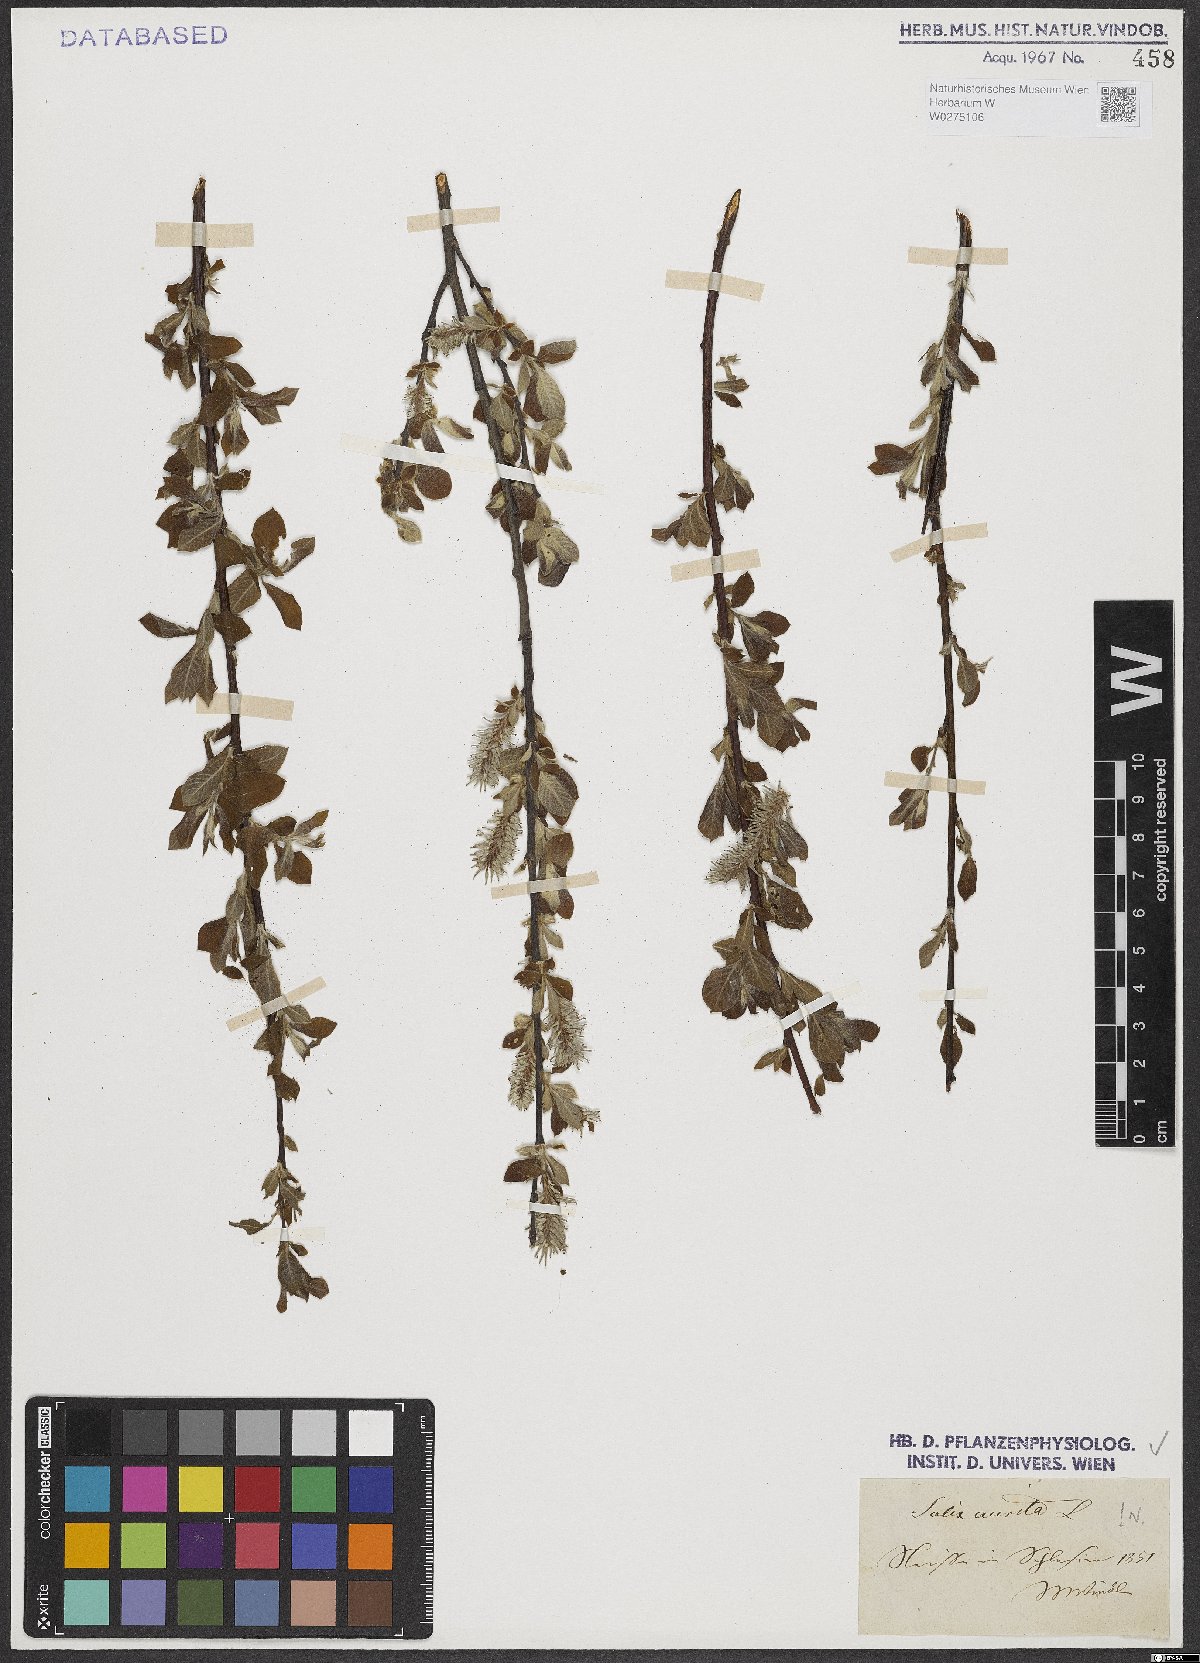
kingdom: Plantae
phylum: Tracheophyta
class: Magnoliopsida
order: Malpighiales
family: Salicaceae
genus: Salix
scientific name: Salix aurita
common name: Eared willow
